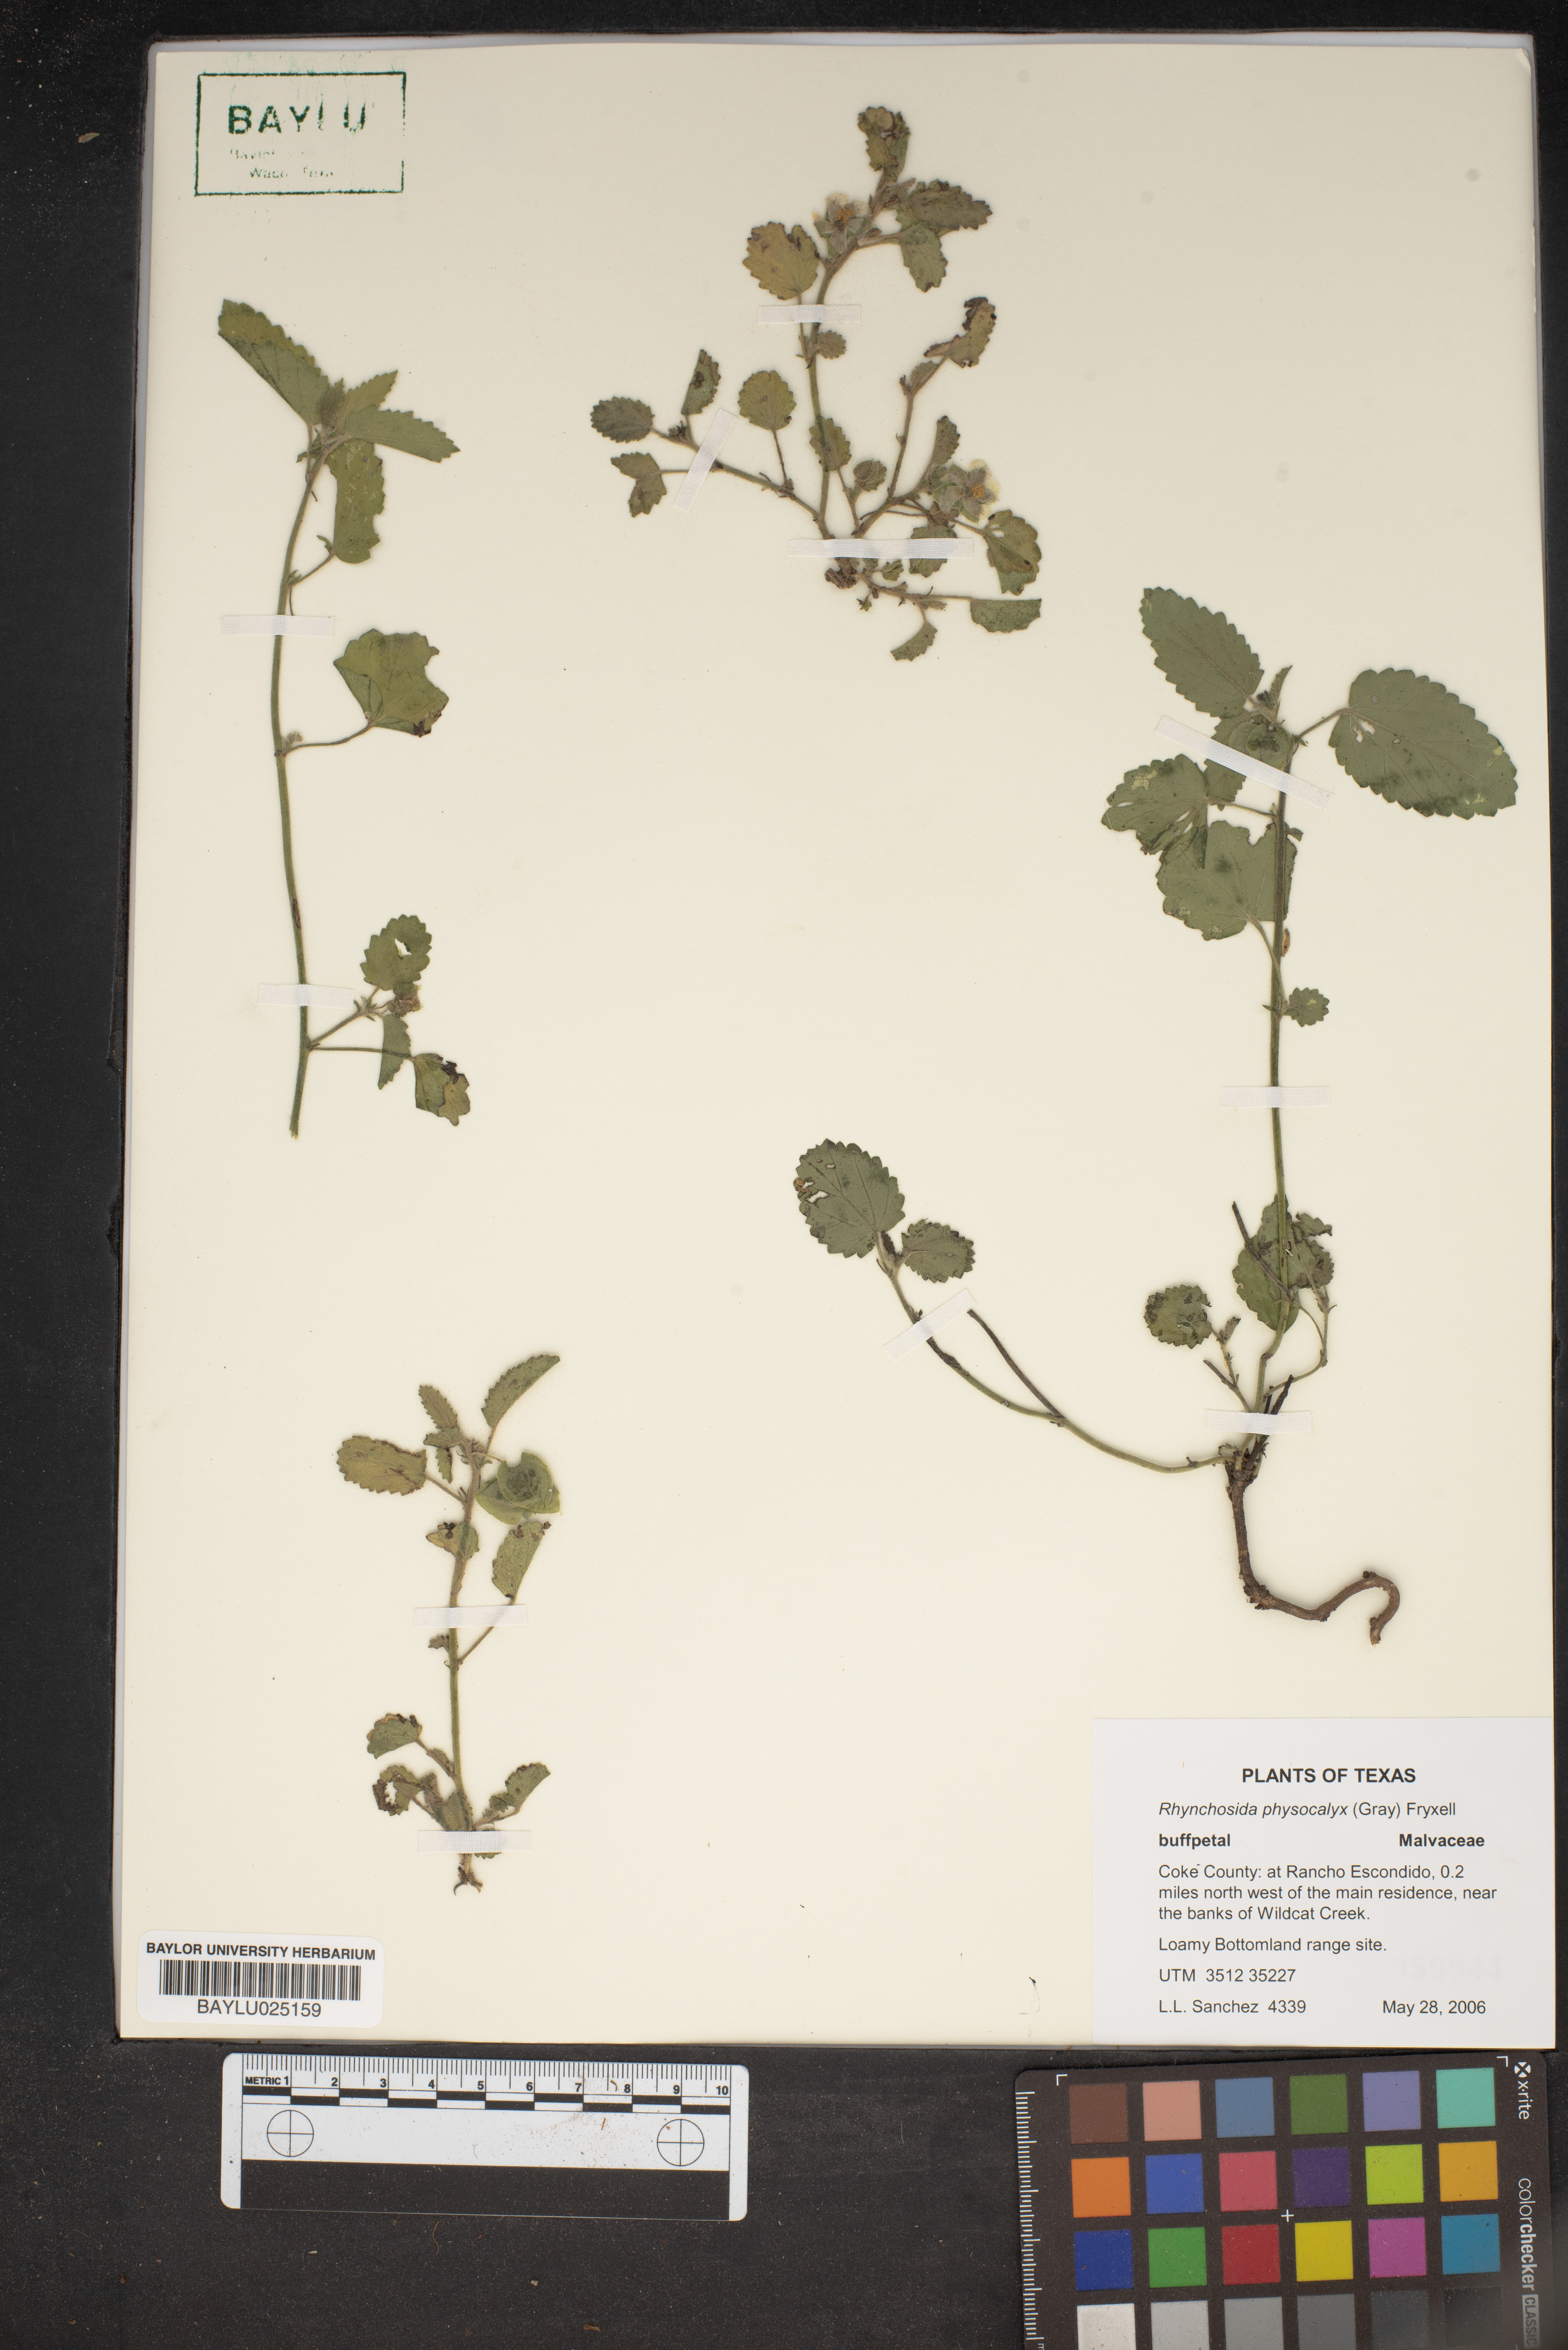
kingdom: Plantae
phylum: Tracheophyta
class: Magnoliopsida
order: Malvales
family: Malvaceae
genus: Rhynchosida
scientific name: Rhynchosida physocalyx
